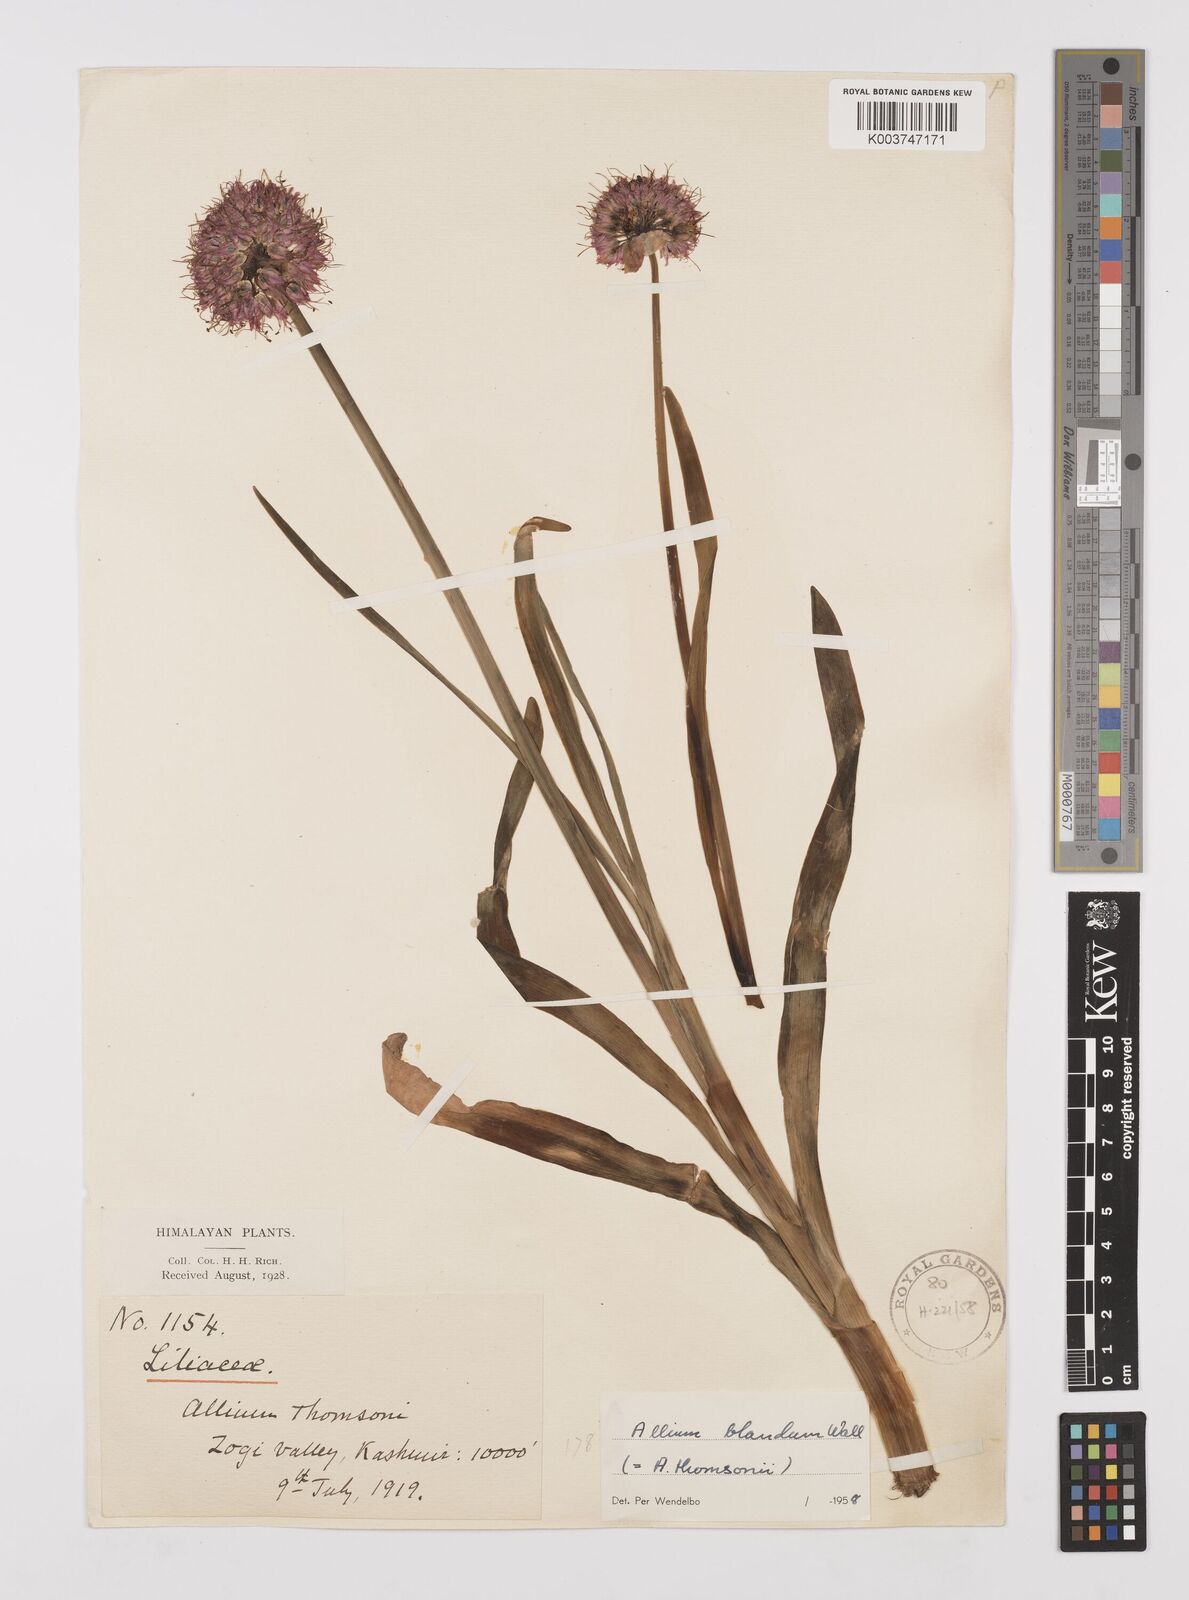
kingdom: Plantae
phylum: Tracheophyta
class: Liliopsida
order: Asparagales
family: Amaryllidaceae
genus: Allium
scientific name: Allium carolinianum
